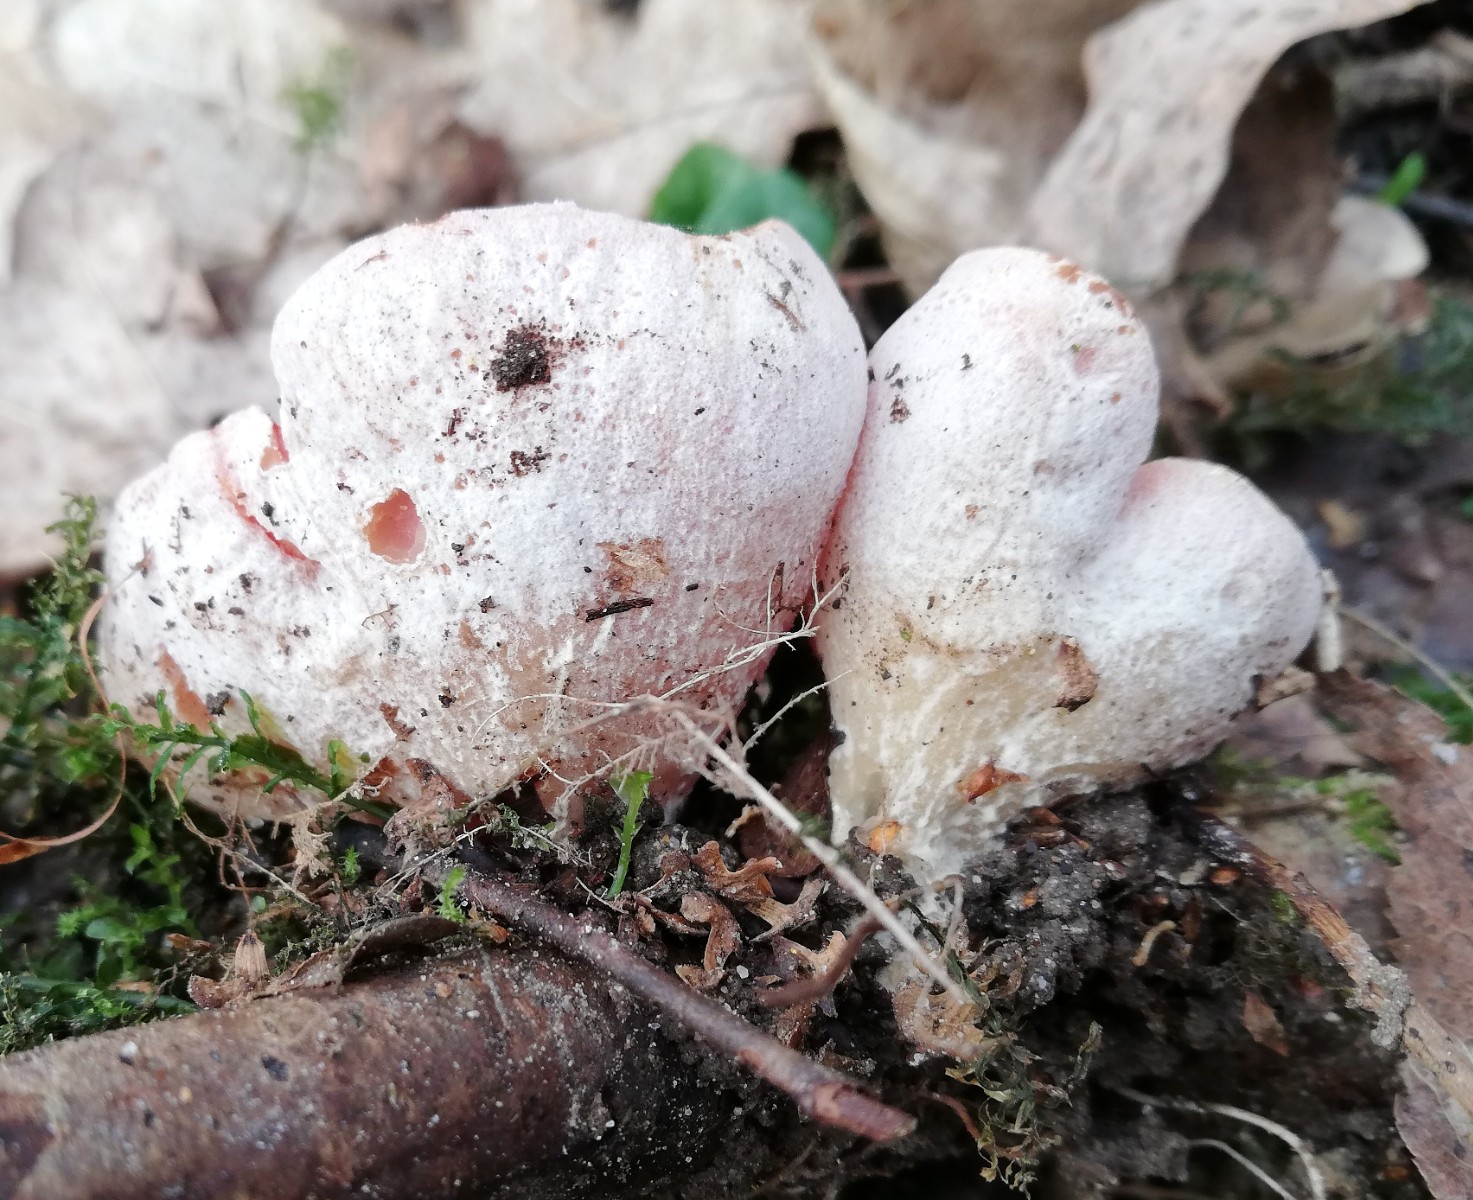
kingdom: Fungi
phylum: Ascomycota
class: Pezizomycetes
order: Pezizales
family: Sarcoscyphaceae
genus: Sarcoscypha
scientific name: Sarcoscypha austriaca
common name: krølhåret pragtbæger
